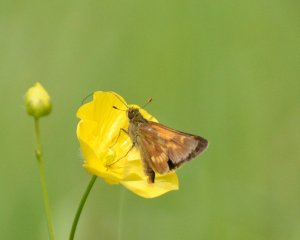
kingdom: Animalia
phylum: Arthropoda
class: Insecta
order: Lepidoptera
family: Hesperiidae
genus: Polites
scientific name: Polites
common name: Long Dash Skipper
